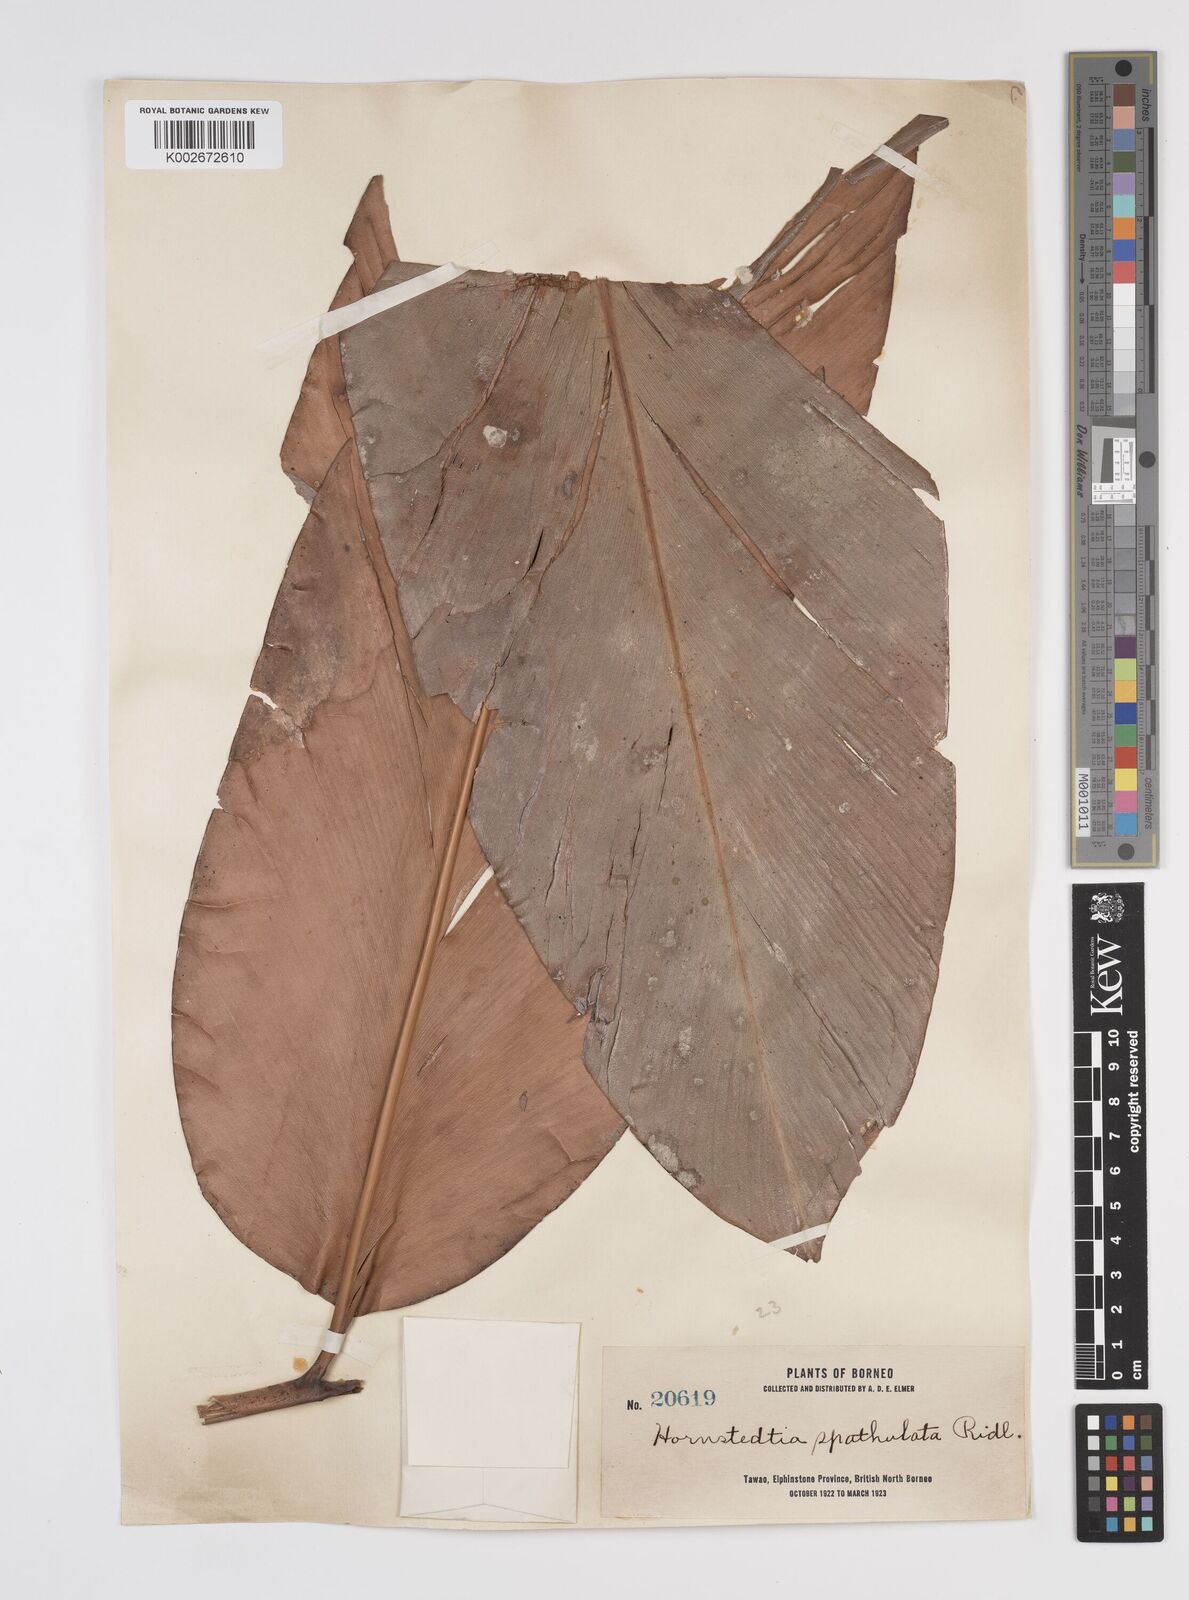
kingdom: Plantae
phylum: Tracheophyta
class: Liliopsida
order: Zingiberales
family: Zingiberaceae
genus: Etlingera
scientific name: Etlingera
